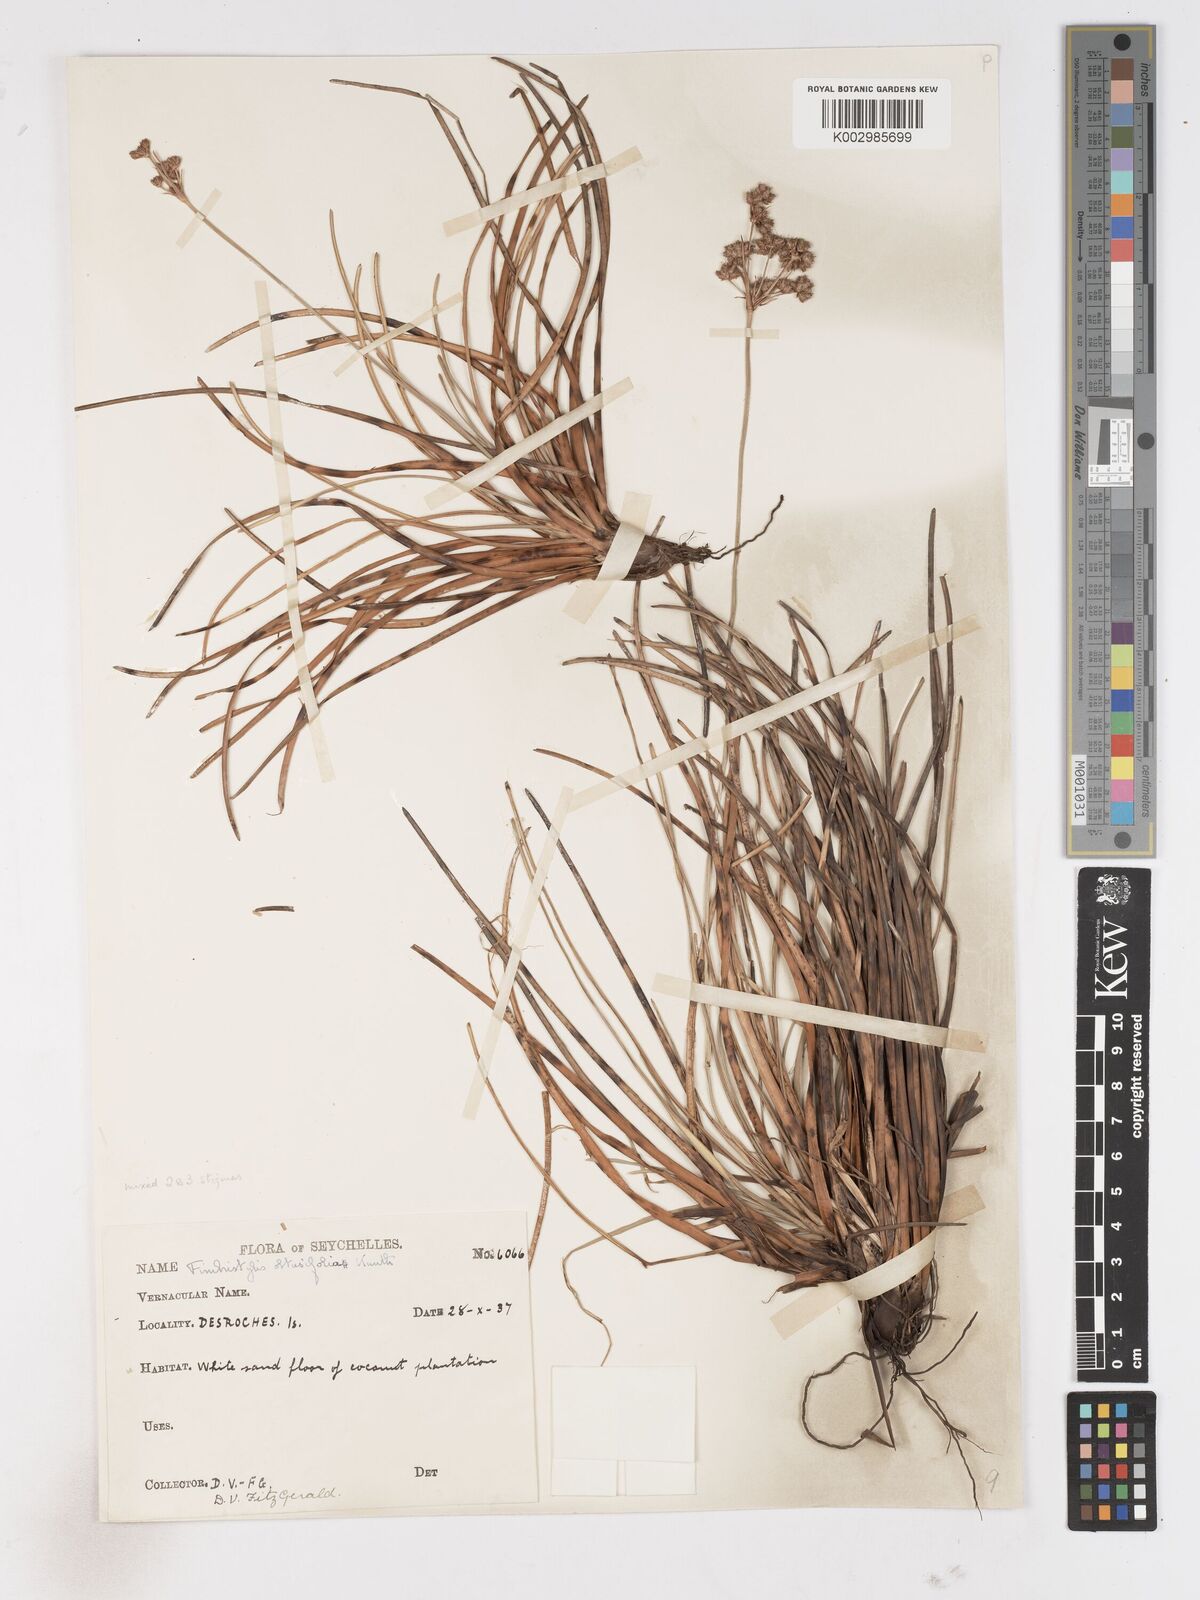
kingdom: Plantae
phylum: Tracheophyta
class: Liliopsida
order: Poales
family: Cyperaceae
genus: Fimbristylis
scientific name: Fimbristylis cymosa
